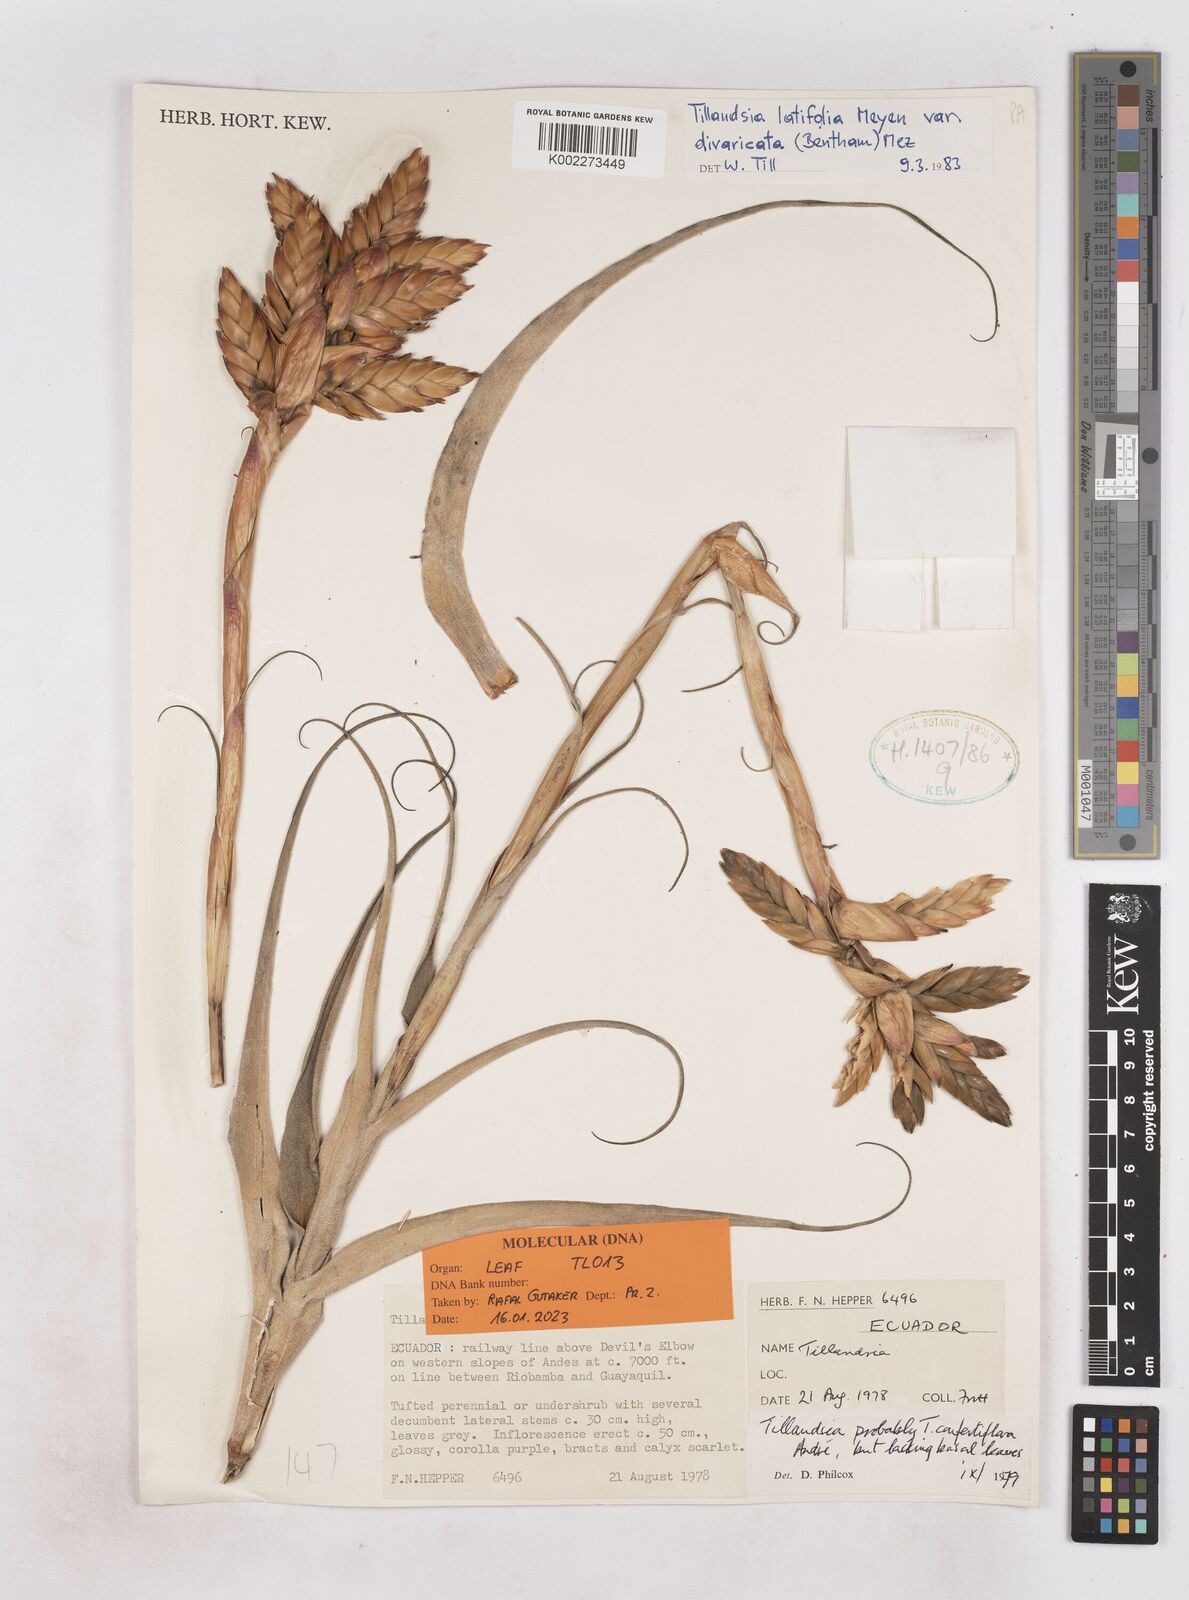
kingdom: Plantae
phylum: Tracheophyta
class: Liliopsida
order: Poales
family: Bromeliaceae
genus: Tillandsia
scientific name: Tillandsia latifolia
